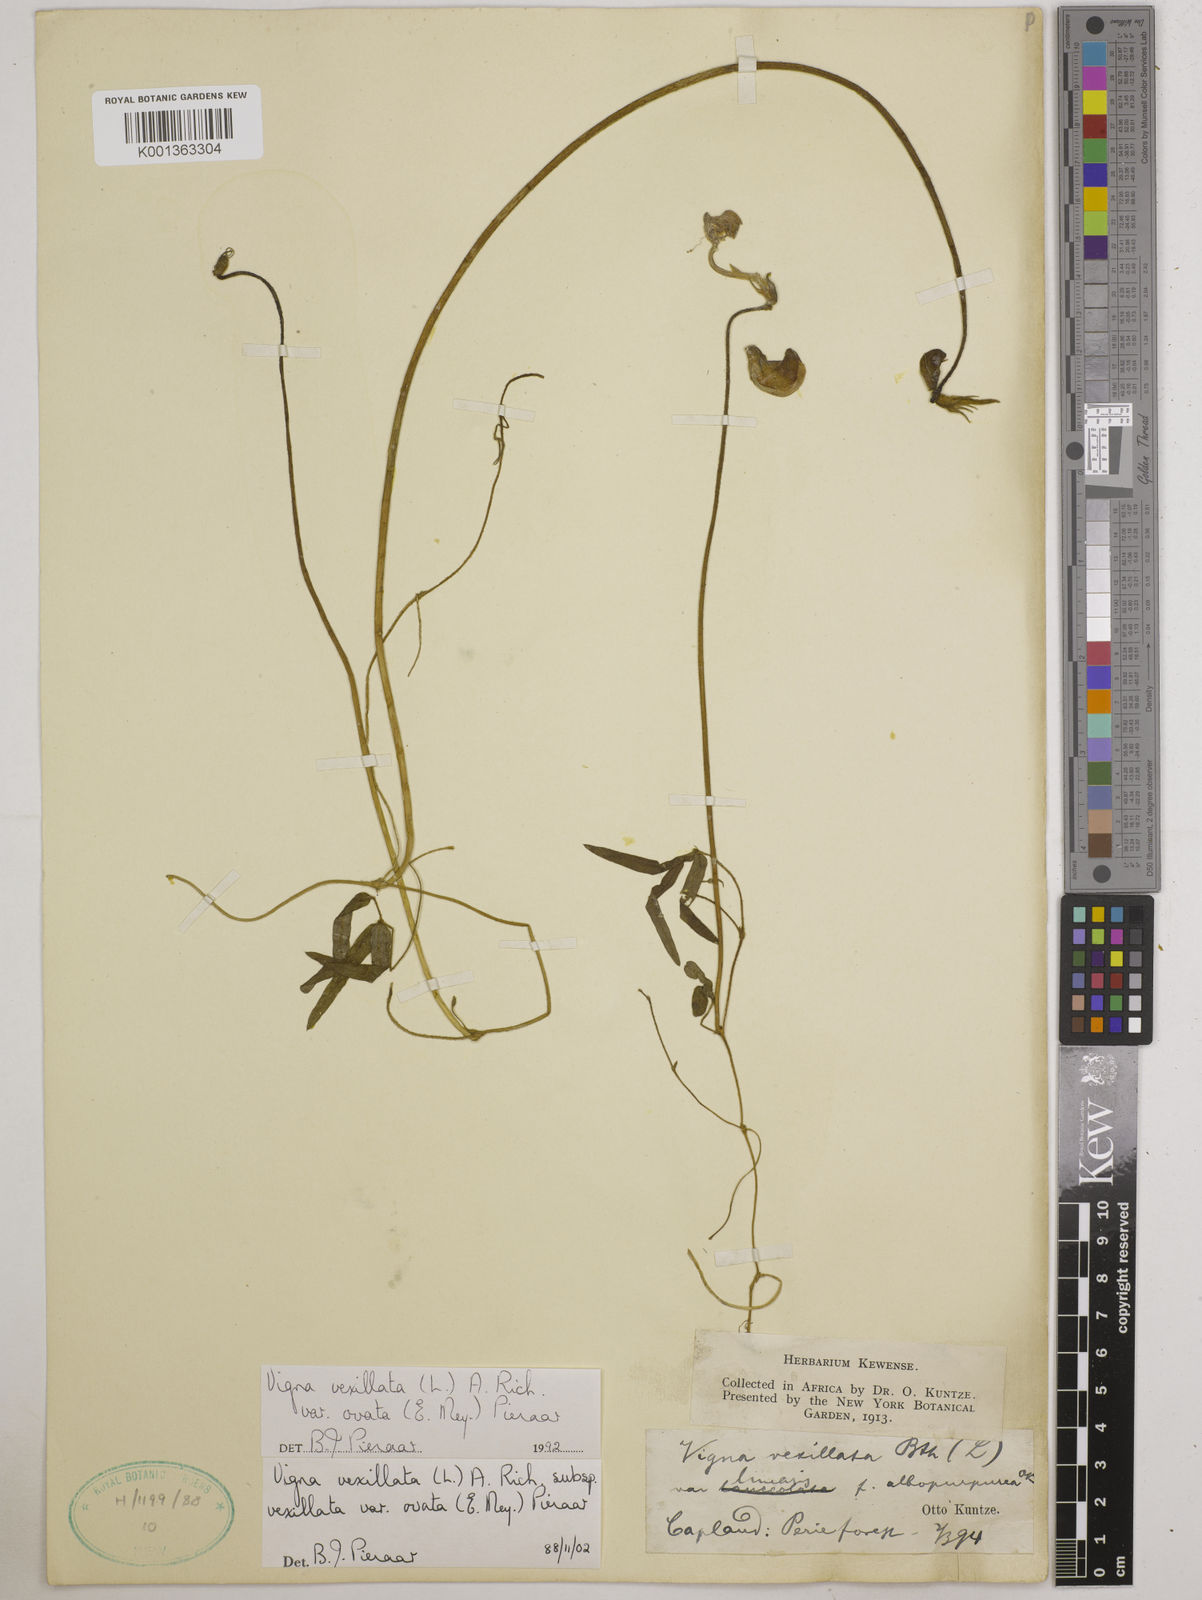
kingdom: Plantae
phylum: Tracheophyta
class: Magnoliopsida
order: Fabales
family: Fabaceae
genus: Vigna
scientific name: Vigna
